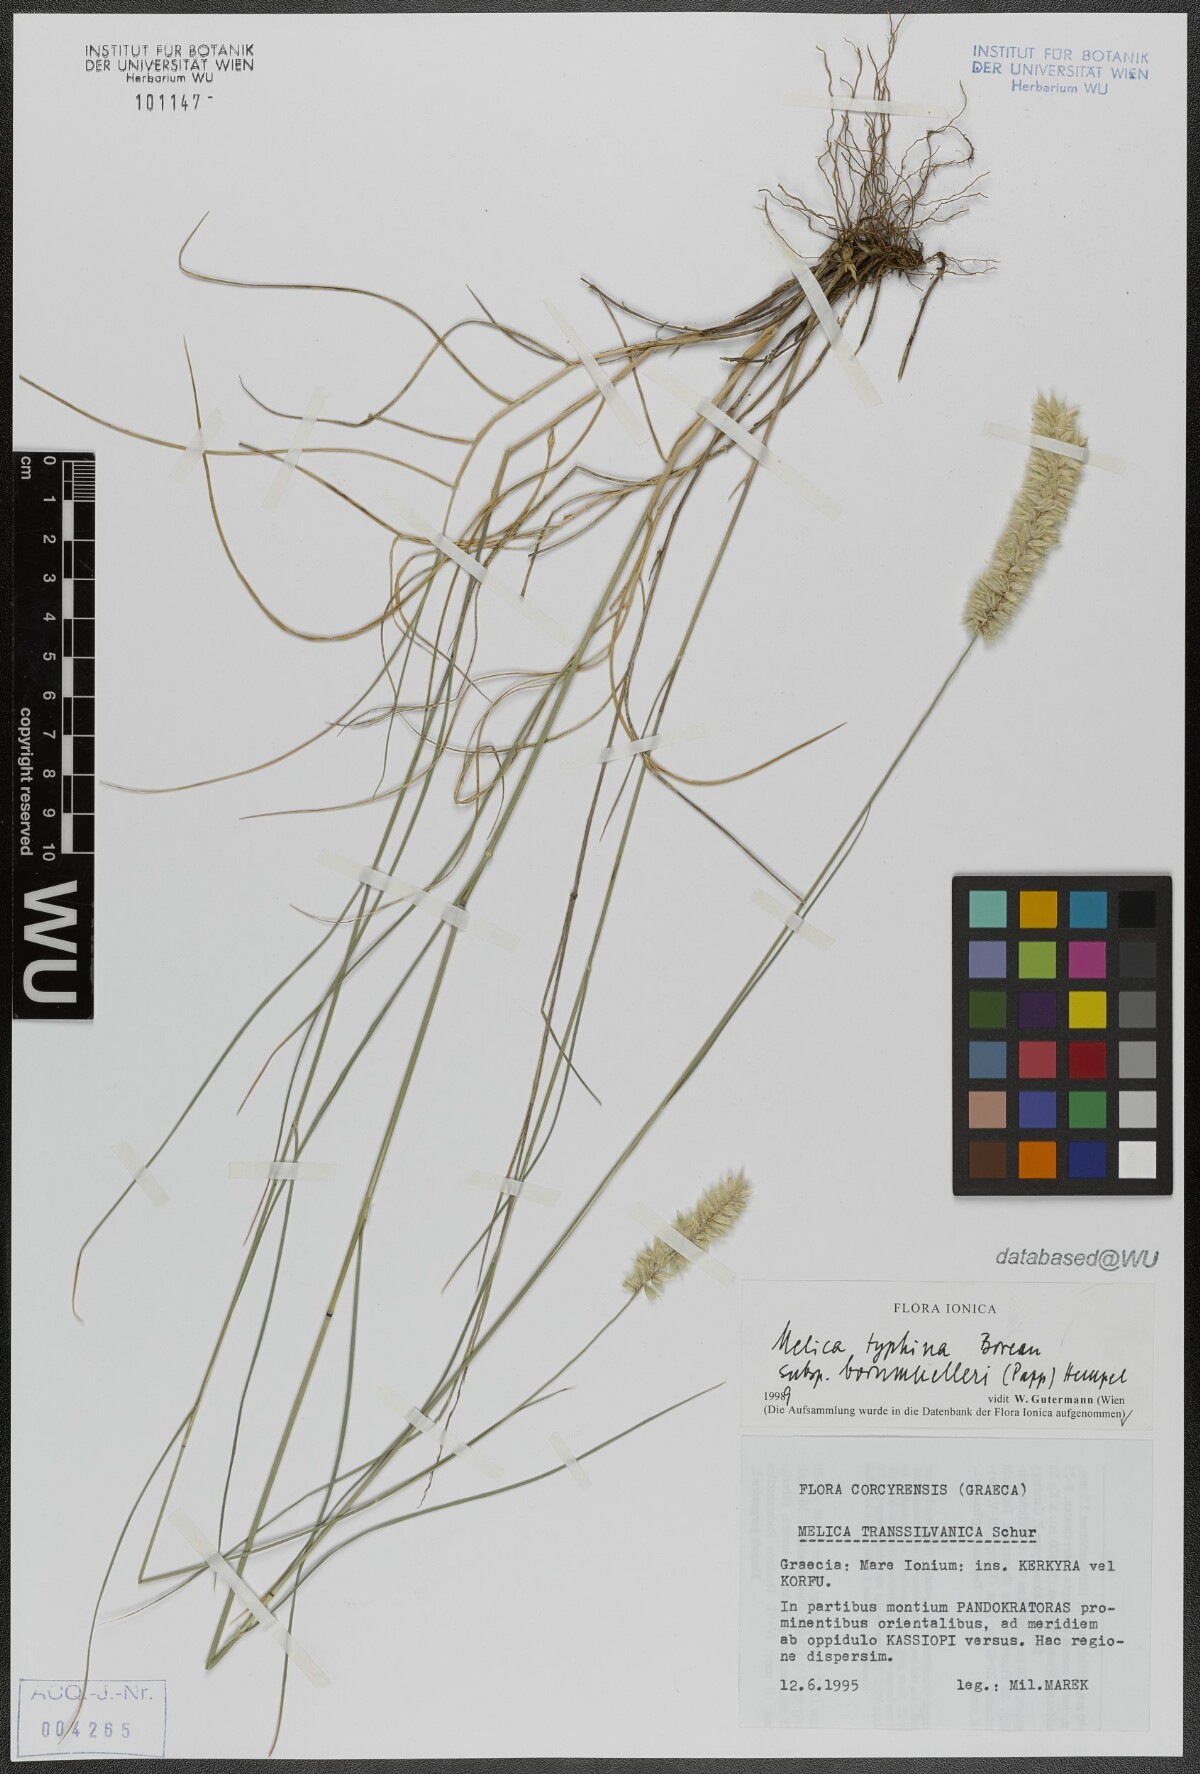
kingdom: Plantae
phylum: Tracheophyta
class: Liliopsida
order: Poales
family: Poaceae
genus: Melica
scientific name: Melica transsilvanica
